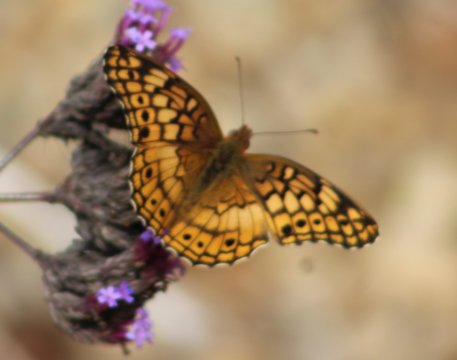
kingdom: Animalia
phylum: Arthropoda
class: Insecta
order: Lepidoptera
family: Nymphalidae
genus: Euptoieta
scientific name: Euptoieta claudia
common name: Variegated Fritillary
